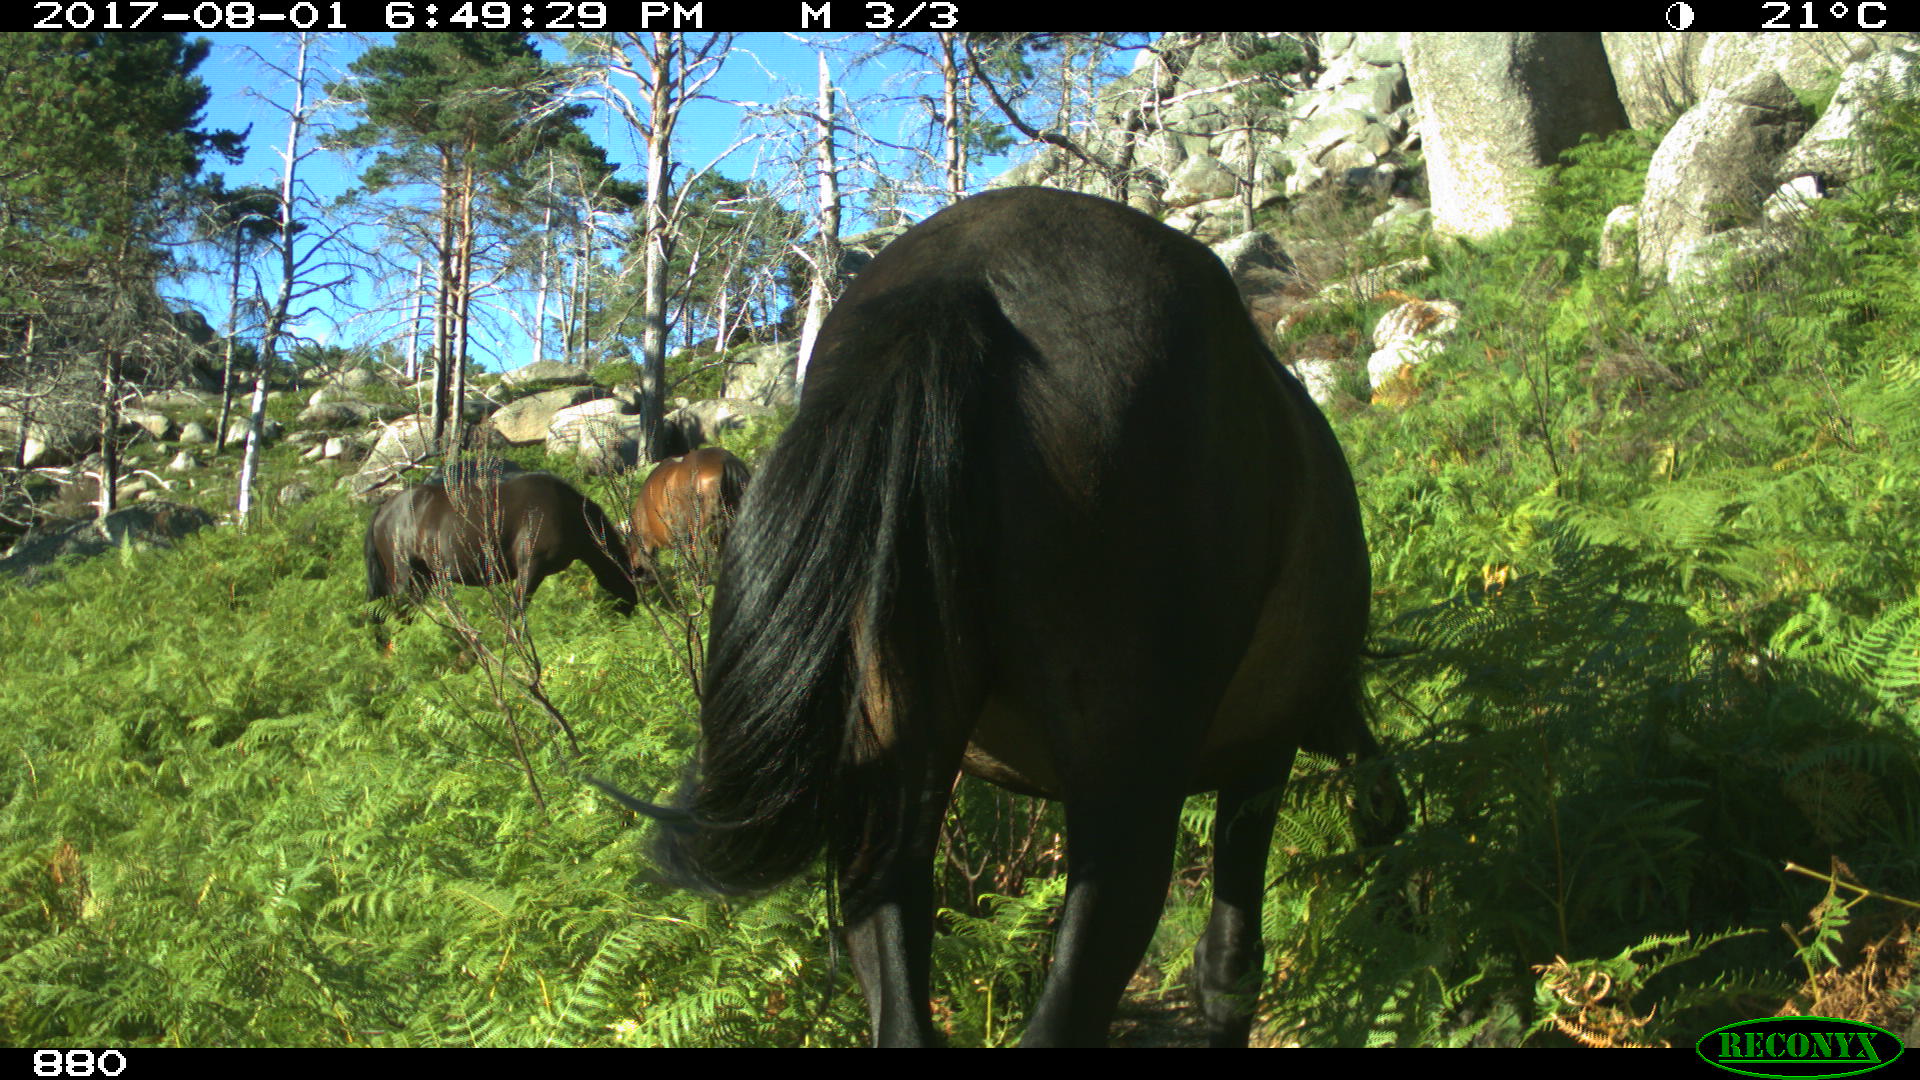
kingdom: Animalia
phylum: Chordata
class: Mammalia
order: Perissodactyla
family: Equidae
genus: Equus
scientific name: Equus caballus
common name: Horse
